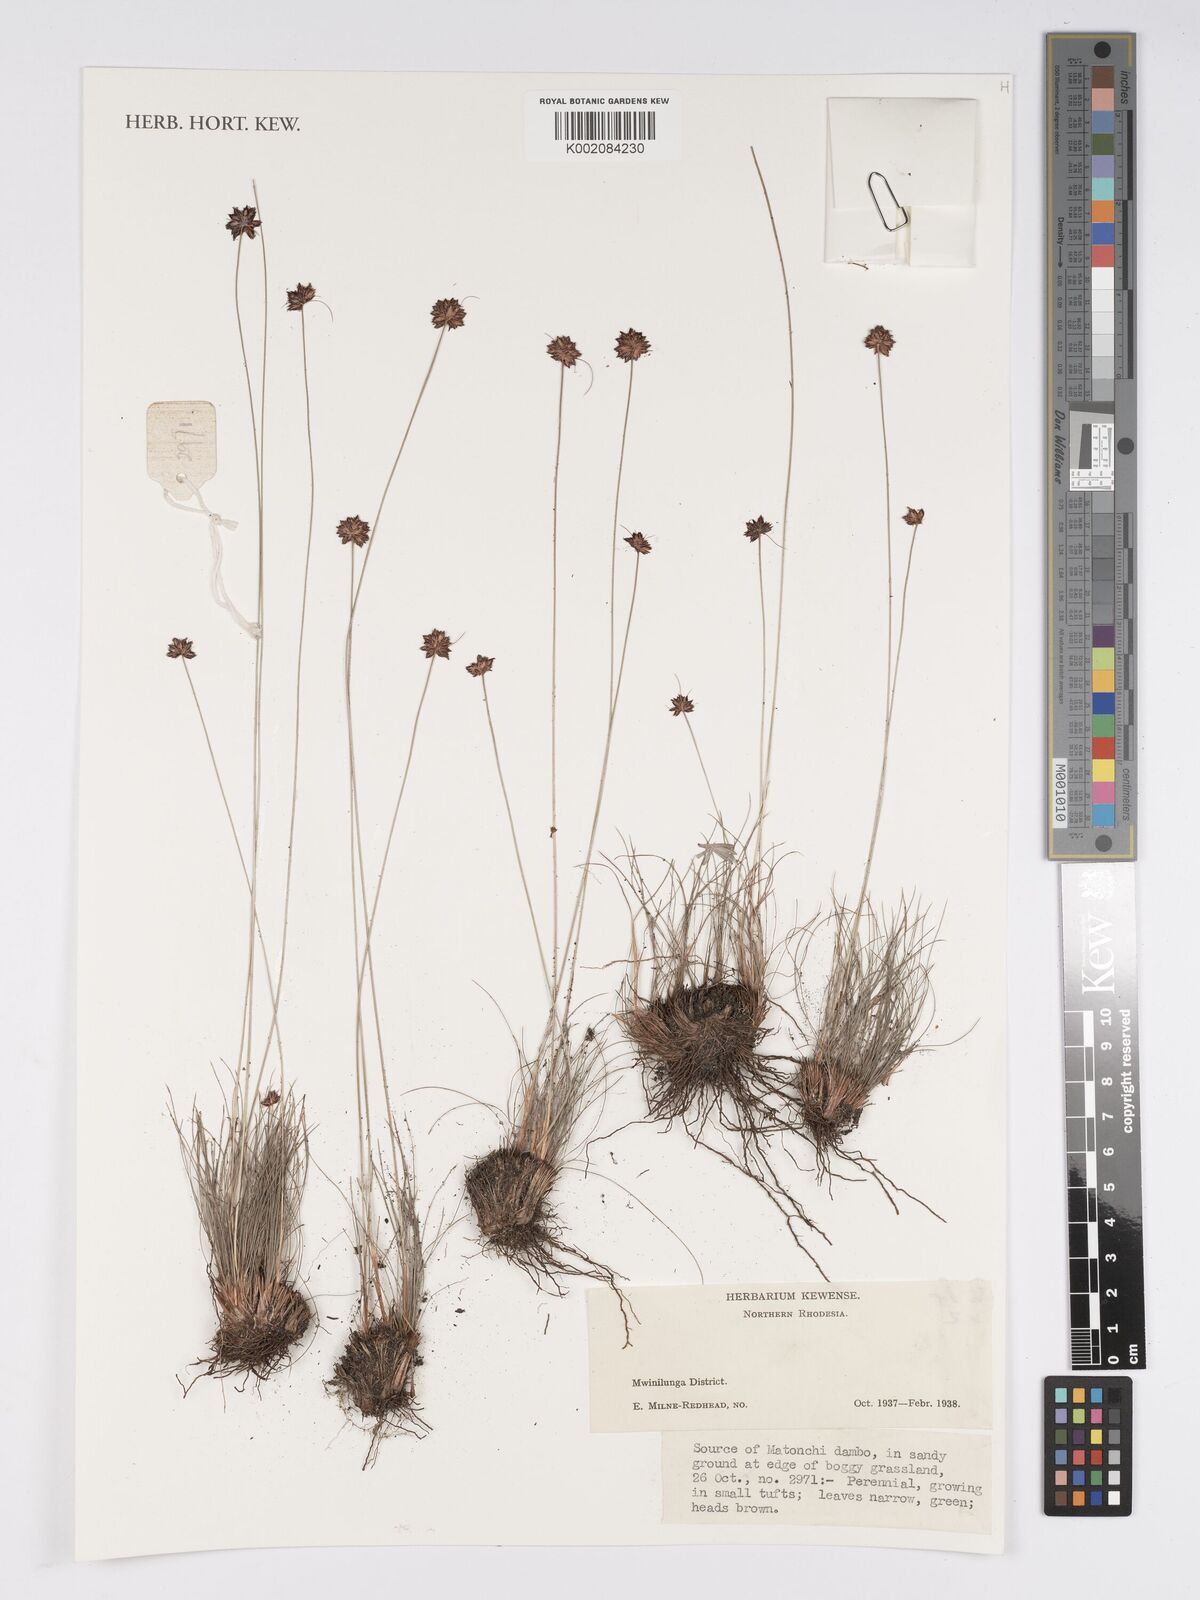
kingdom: Plantae
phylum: Tracheophyta
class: Liliopsida
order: Poales
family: Cyperaceae
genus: Bulbostylis
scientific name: Bulbostylis
